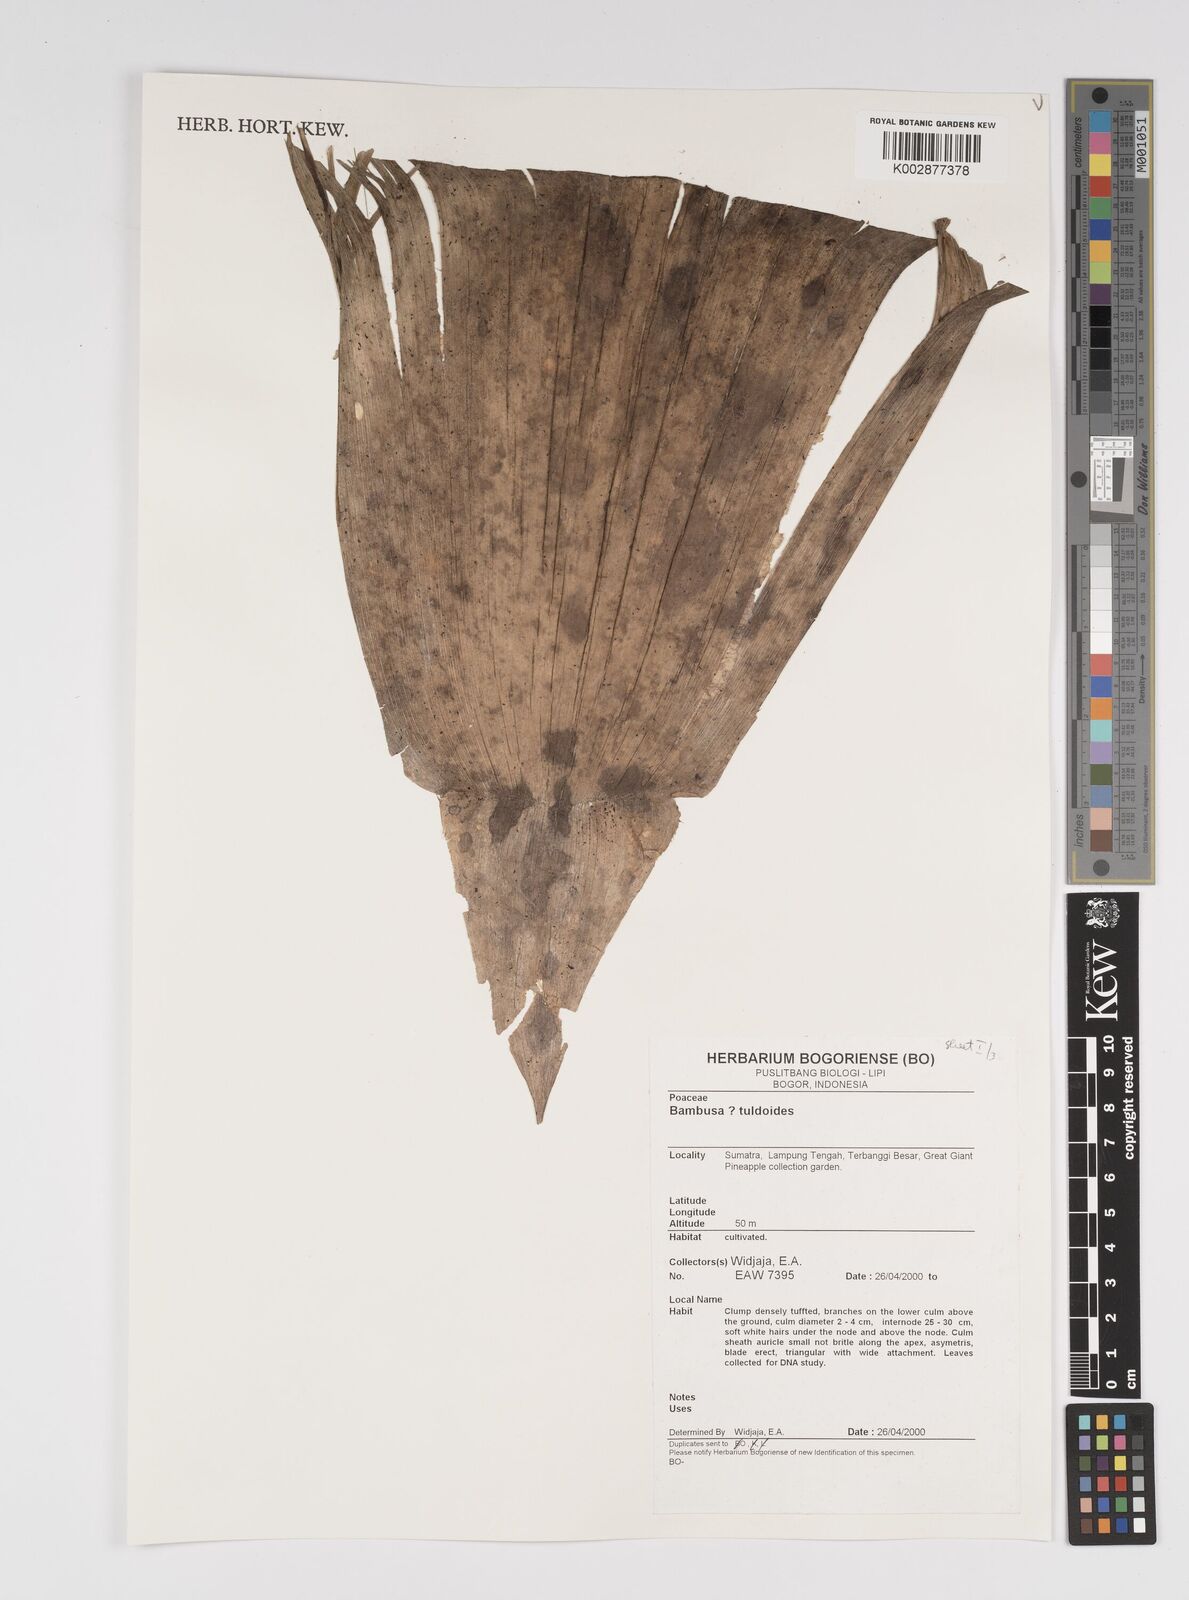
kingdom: Plantae
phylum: Tracheophyta
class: Liliopsida
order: Poales
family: Poaceae
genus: Bambusa
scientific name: Bambusa tuldoides
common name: Verdant bamboo
